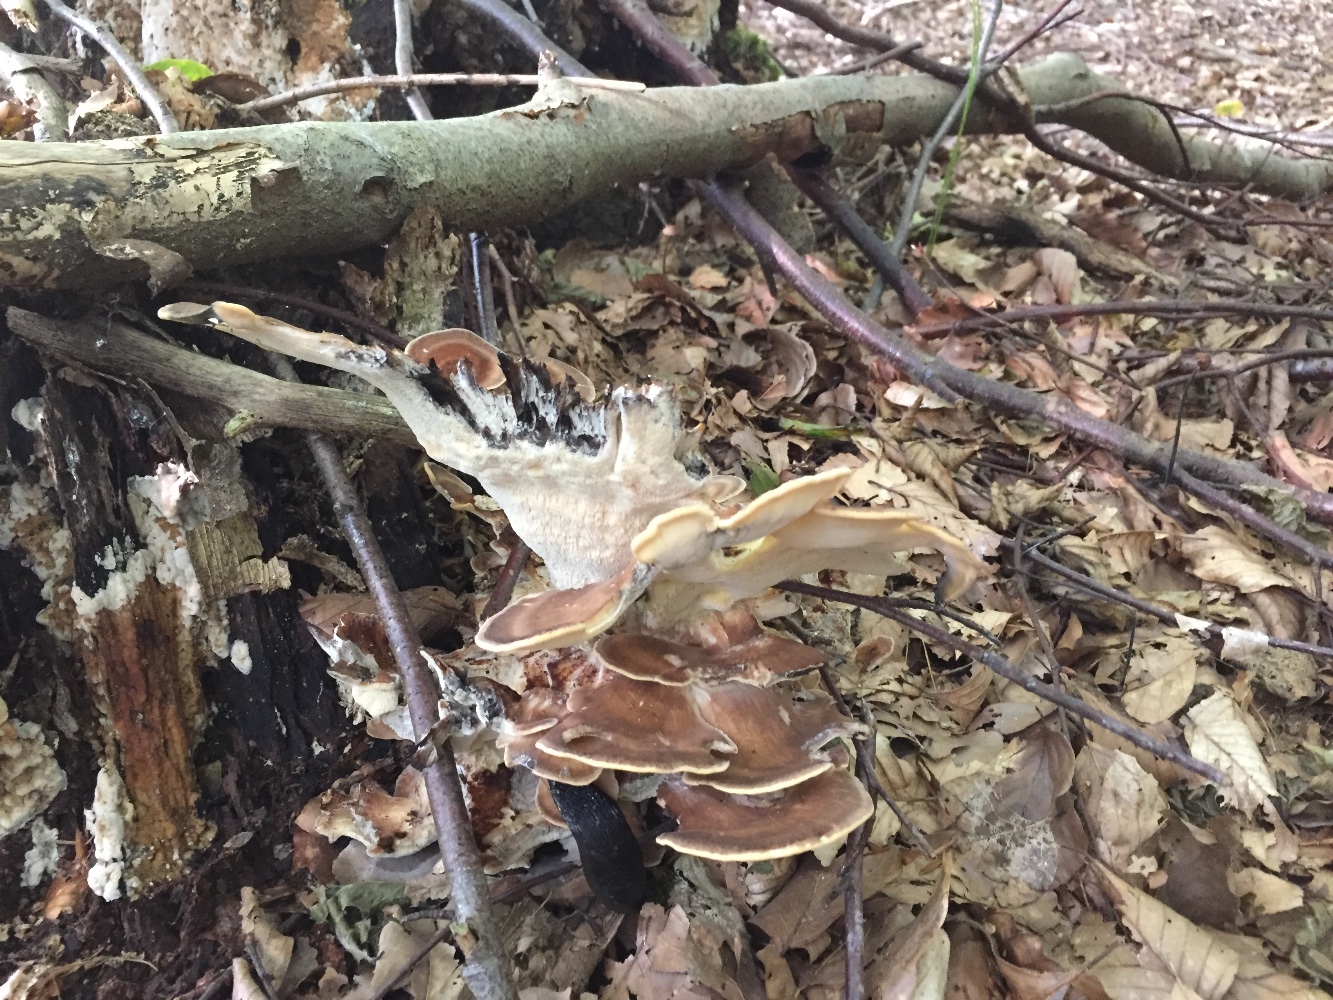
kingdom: Fungi
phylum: Basidiomycota
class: Agaricomycetes
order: Polyporales
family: Meripilaceae
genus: Meripilus
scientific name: Meripilus giganteus
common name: kæmpeporesvamp
